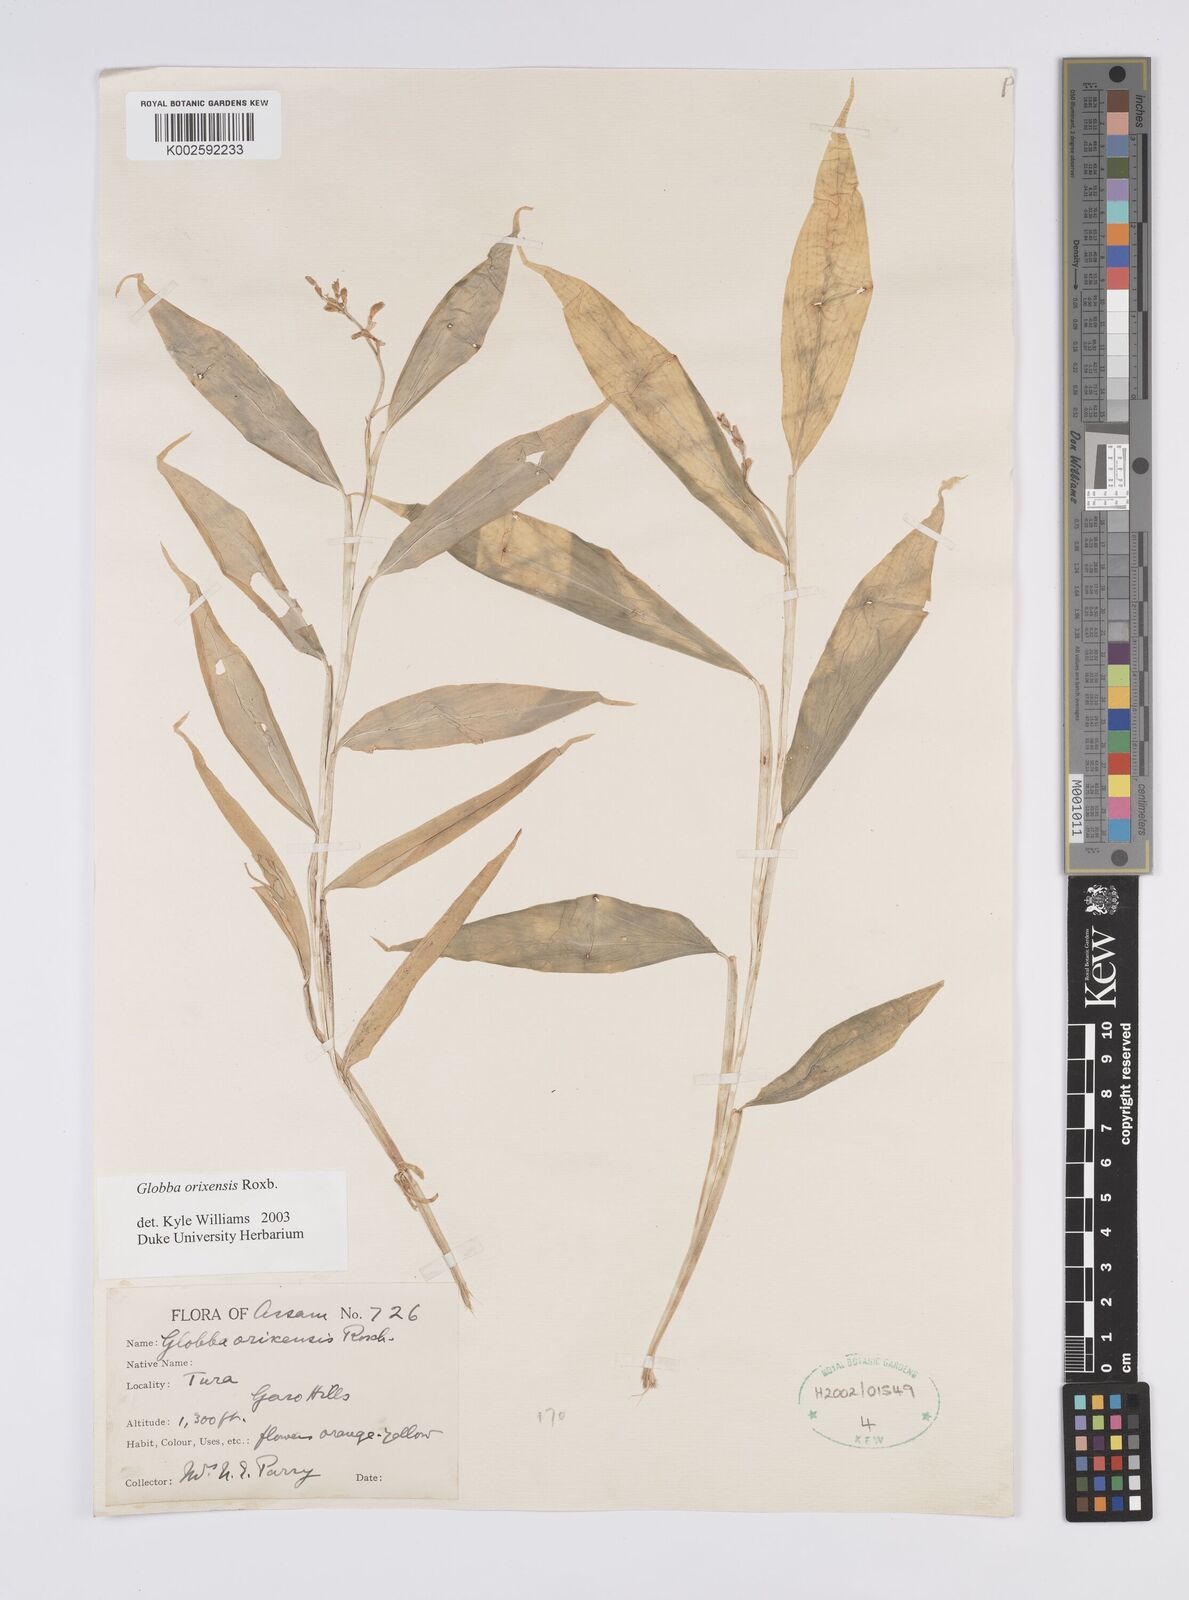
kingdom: Plantae
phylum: Tracheophyta
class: Liliopsida
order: Zingiberales
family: Zingiberaceae
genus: Globba
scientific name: Globba orixensis
